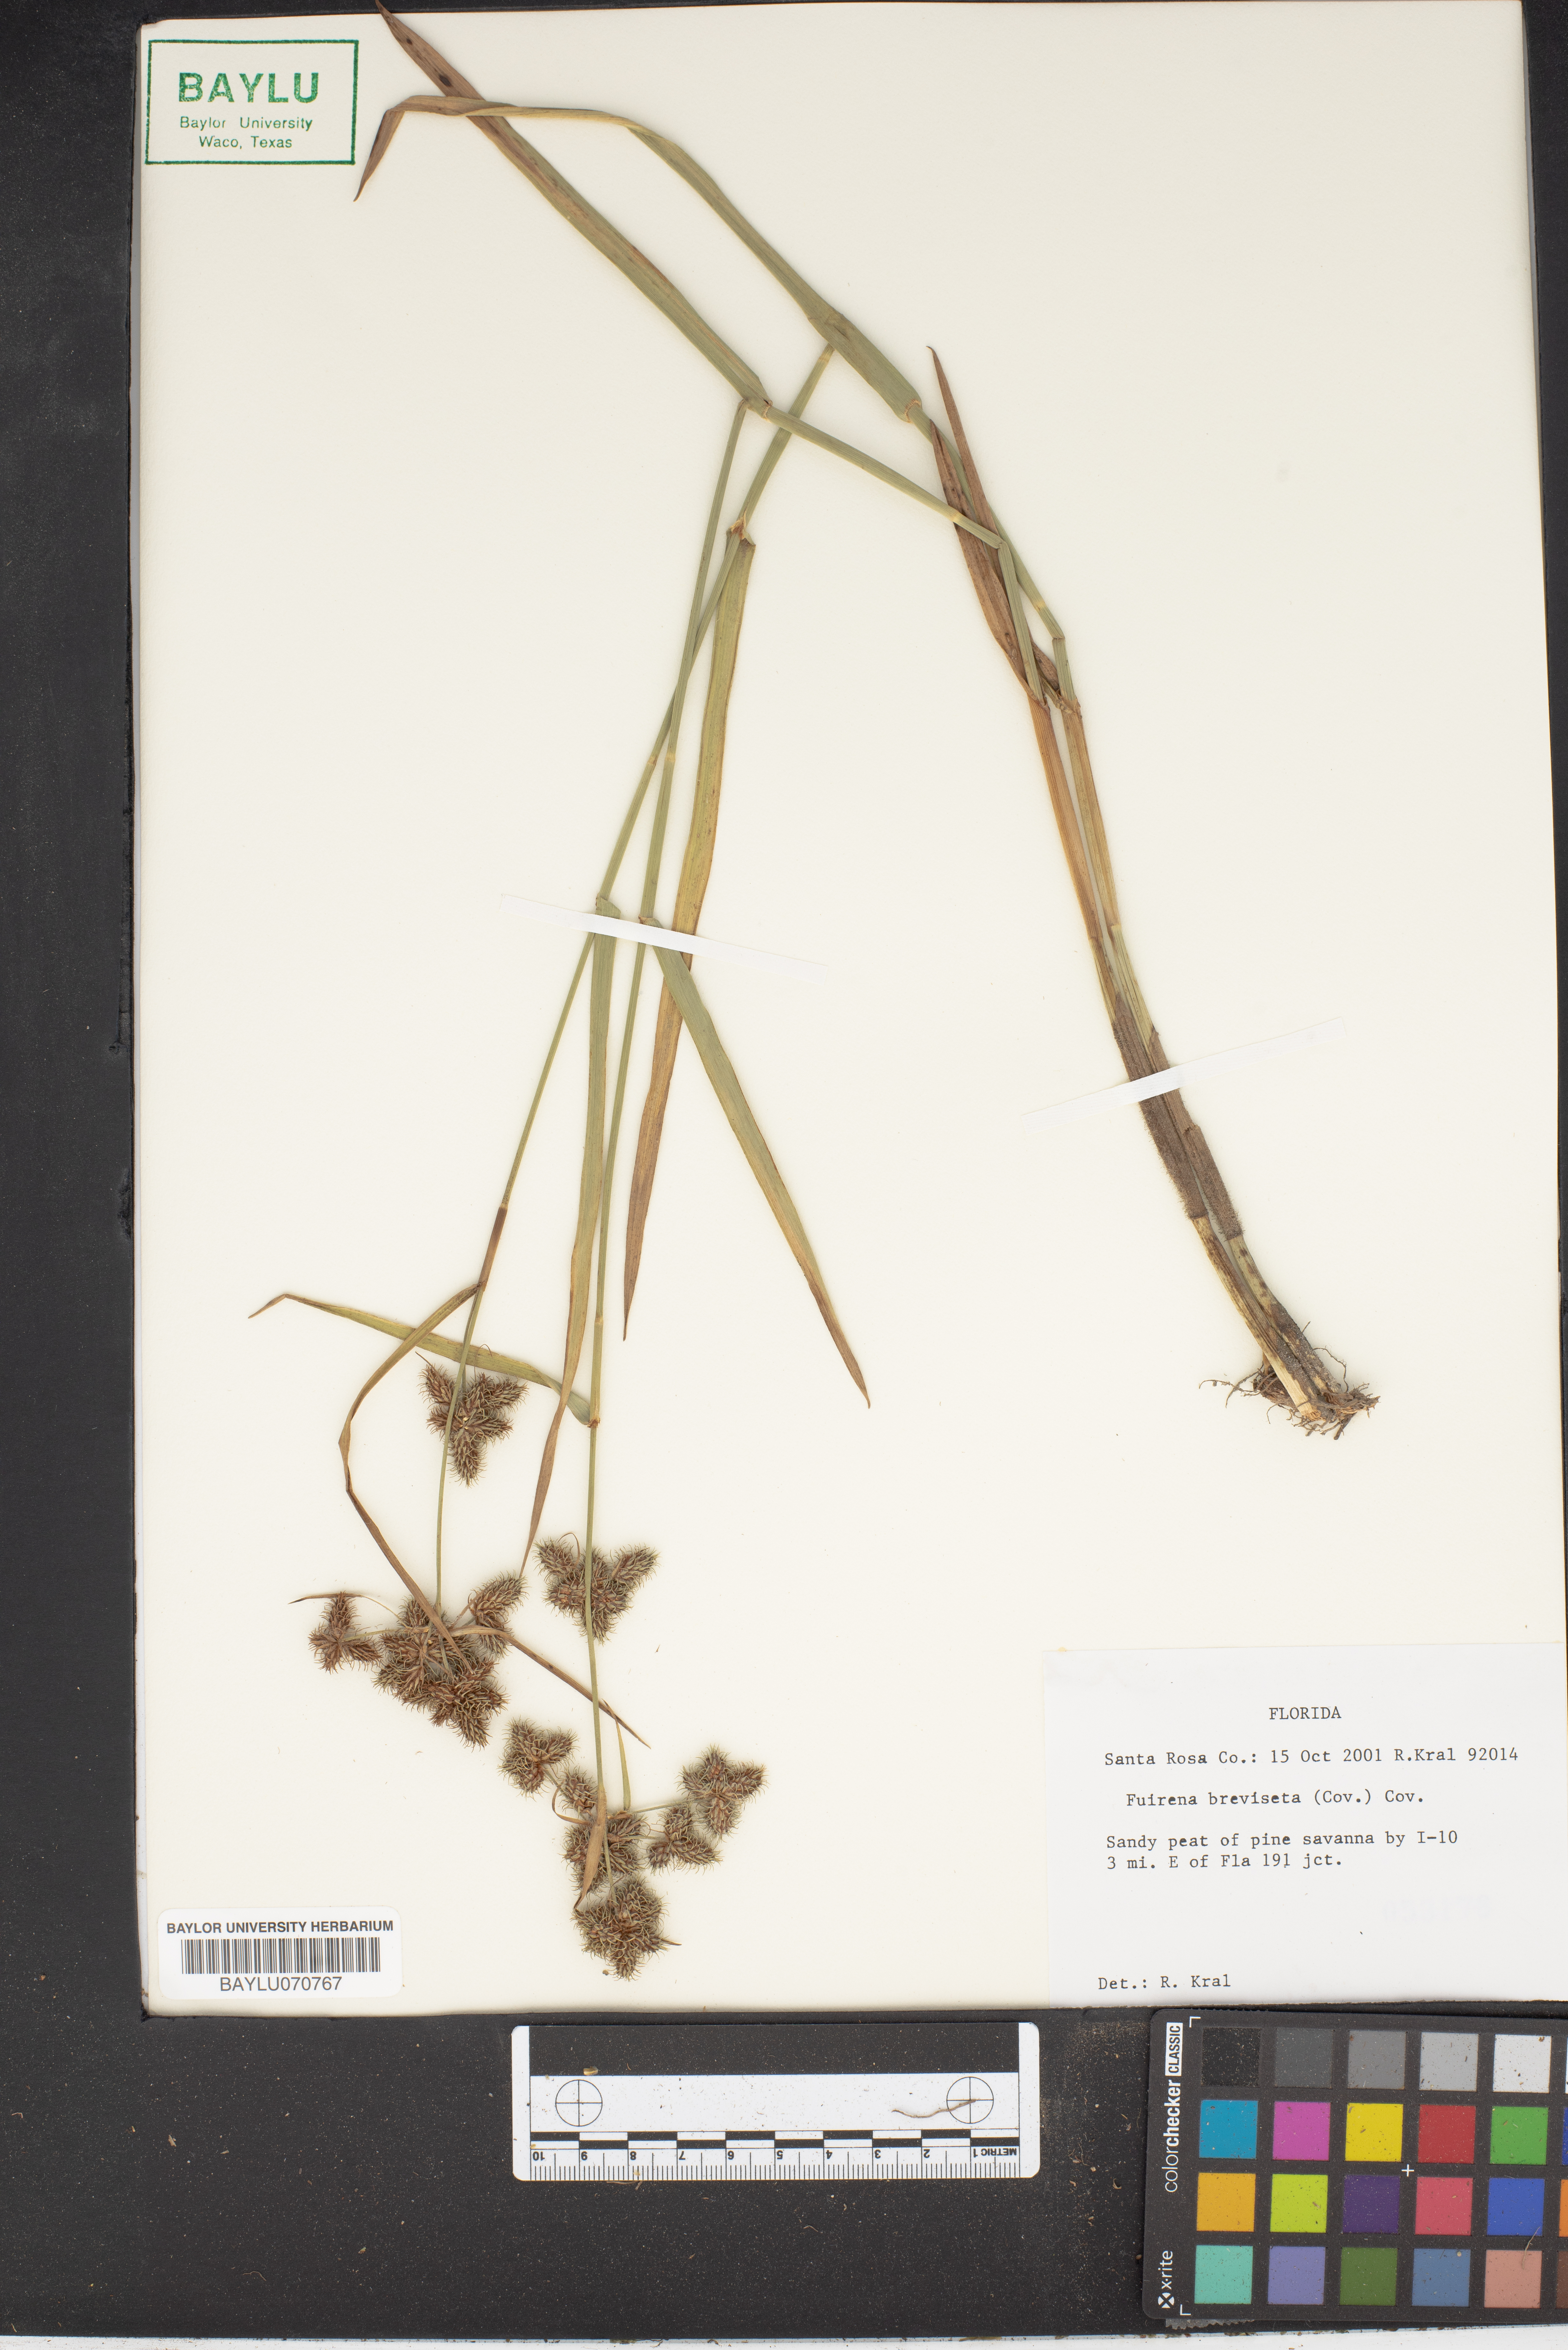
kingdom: Plantae
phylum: Tracheophyta
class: Liliopsida
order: Poales
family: Cyperaceae
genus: Fuirena
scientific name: Fuirena breviseta
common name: Saltmarsh umbrella sedge
